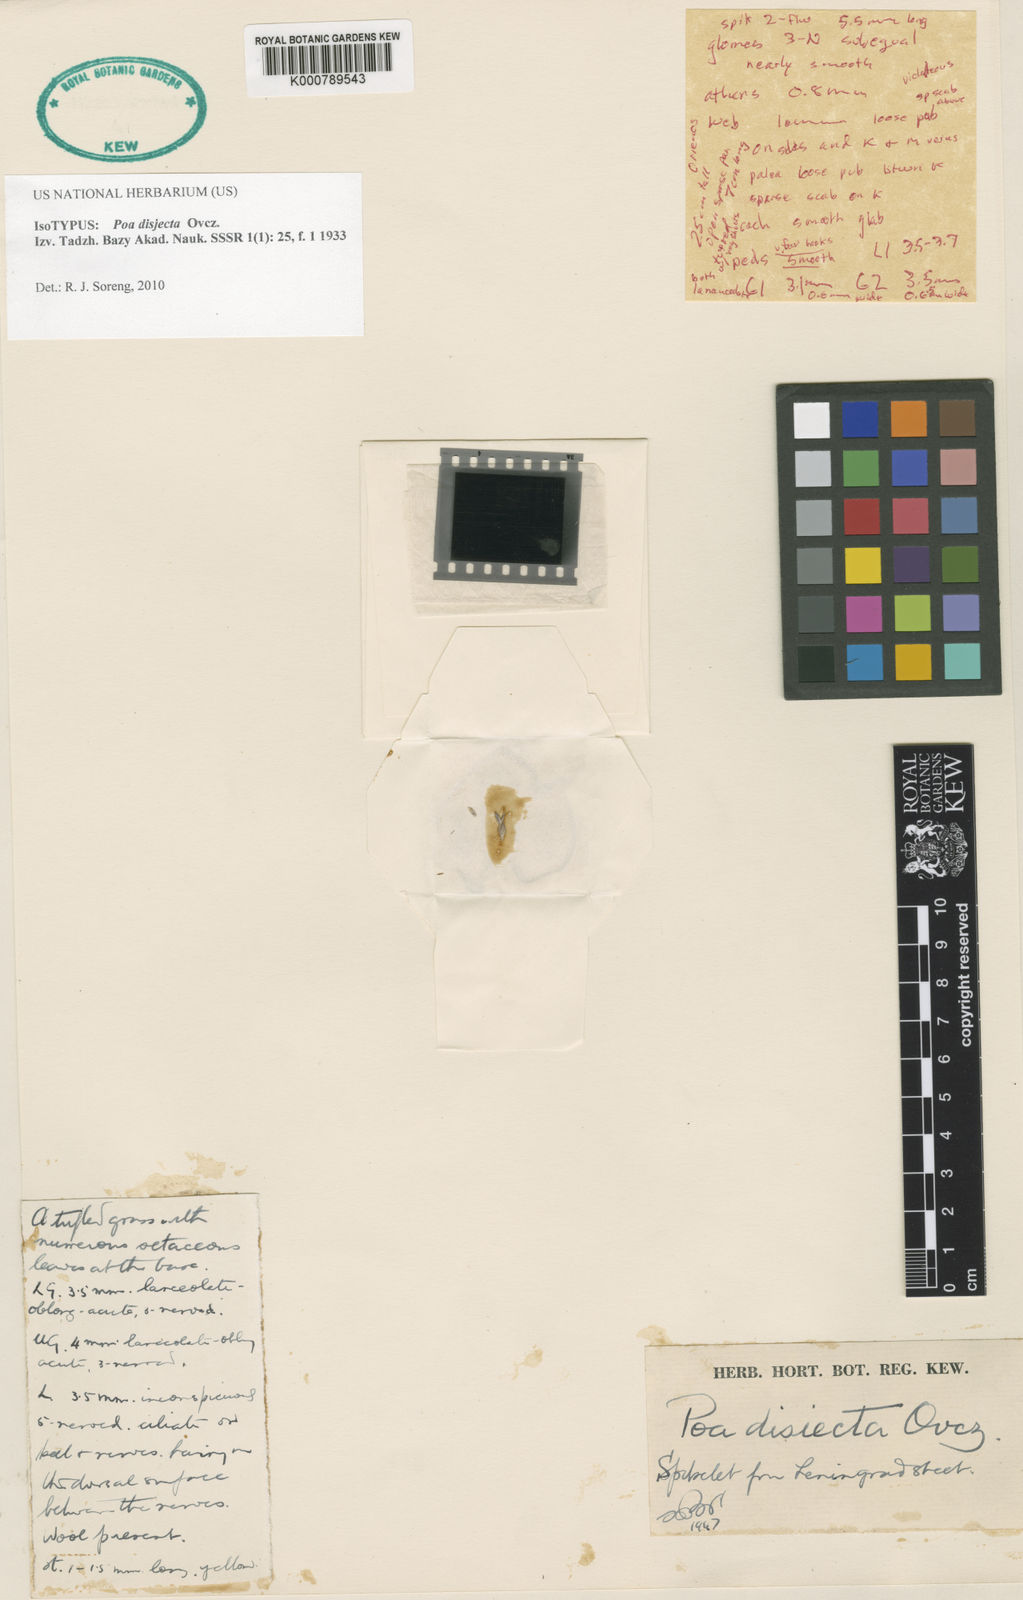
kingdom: Plantae
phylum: Tracheophyta
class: Liliopsida
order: Poales
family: Poaceae
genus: Poa
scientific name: Poa disjecta
